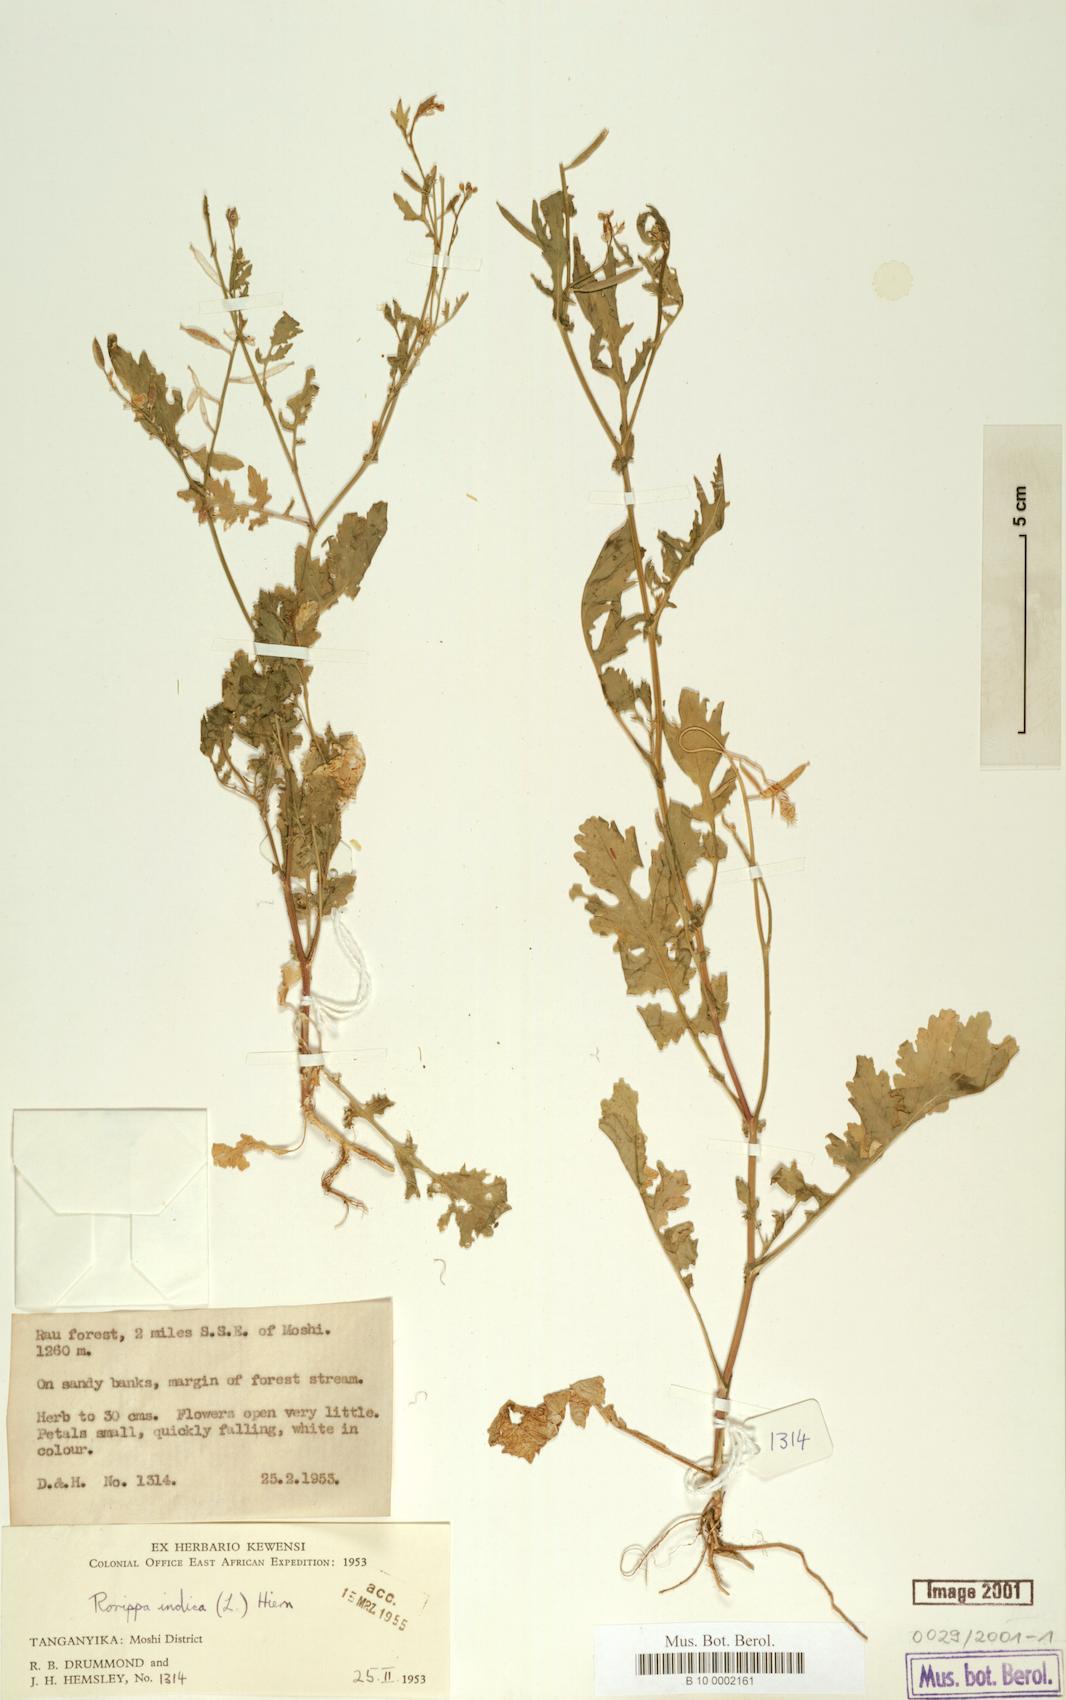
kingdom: Plantae
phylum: Tracheophyta
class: Magnoliopsida
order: Brassicales
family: Brassicaceae
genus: Rorippa
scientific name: Rorippa indica
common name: Variableleaf yellowcress
